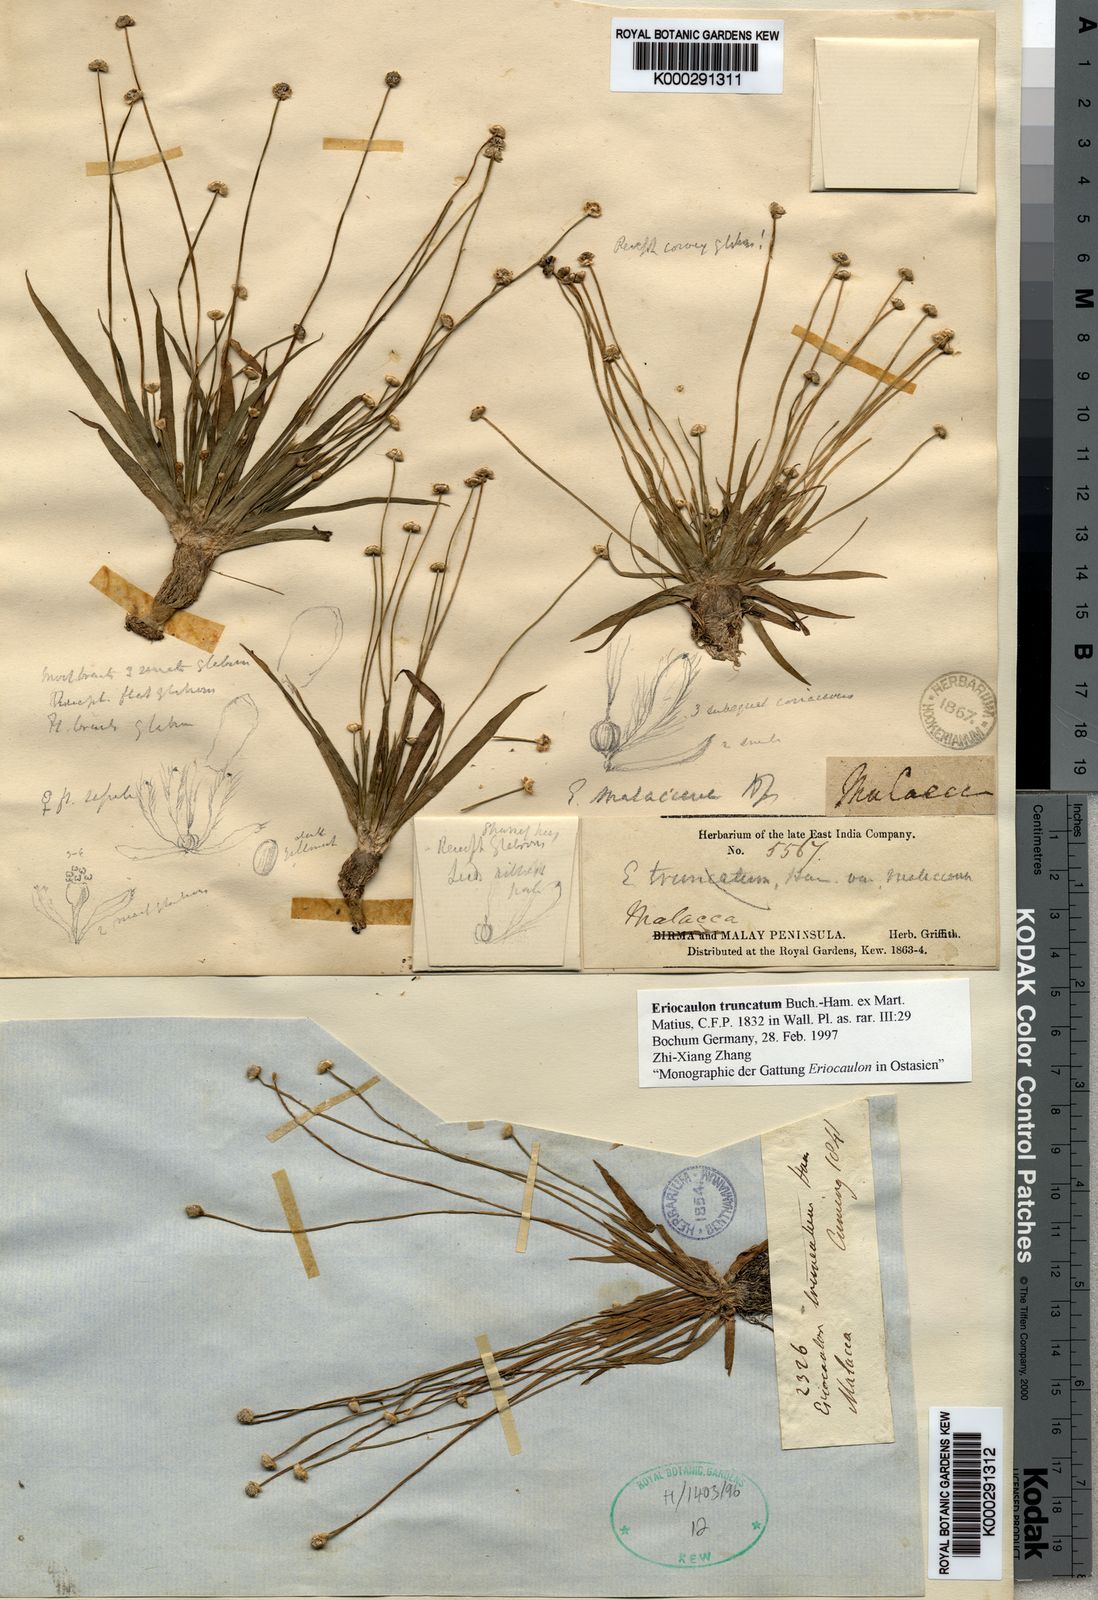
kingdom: Plantae
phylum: Tracheophyta
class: Liliopsida
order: Poales
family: Eriocaulaceae
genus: Eriocaulon
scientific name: Eriocaulon truncatum
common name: Short pipe-wort
